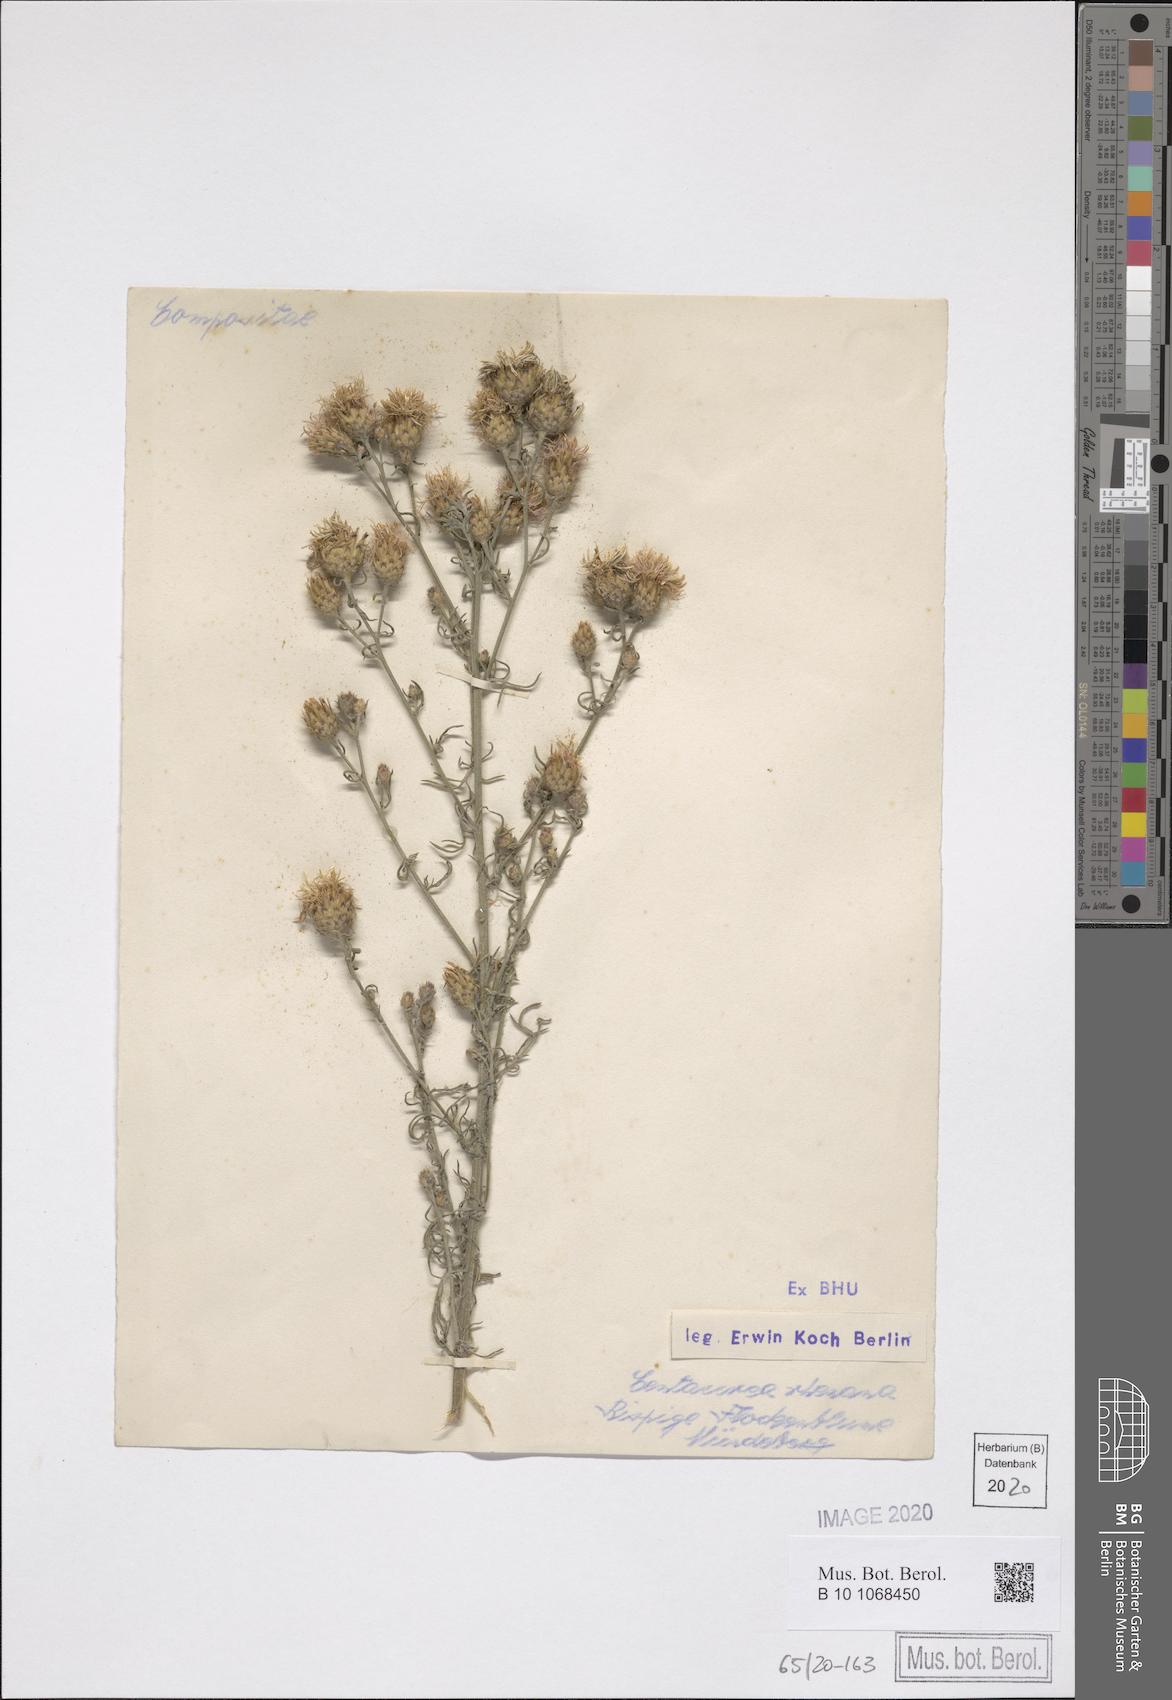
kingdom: Plantae
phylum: Tracheophyta
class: Magnoliopsida
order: Asterales
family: Asteraceae
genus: Centaurea
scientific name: Centaurea stoebe
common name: Spotted knapweed
